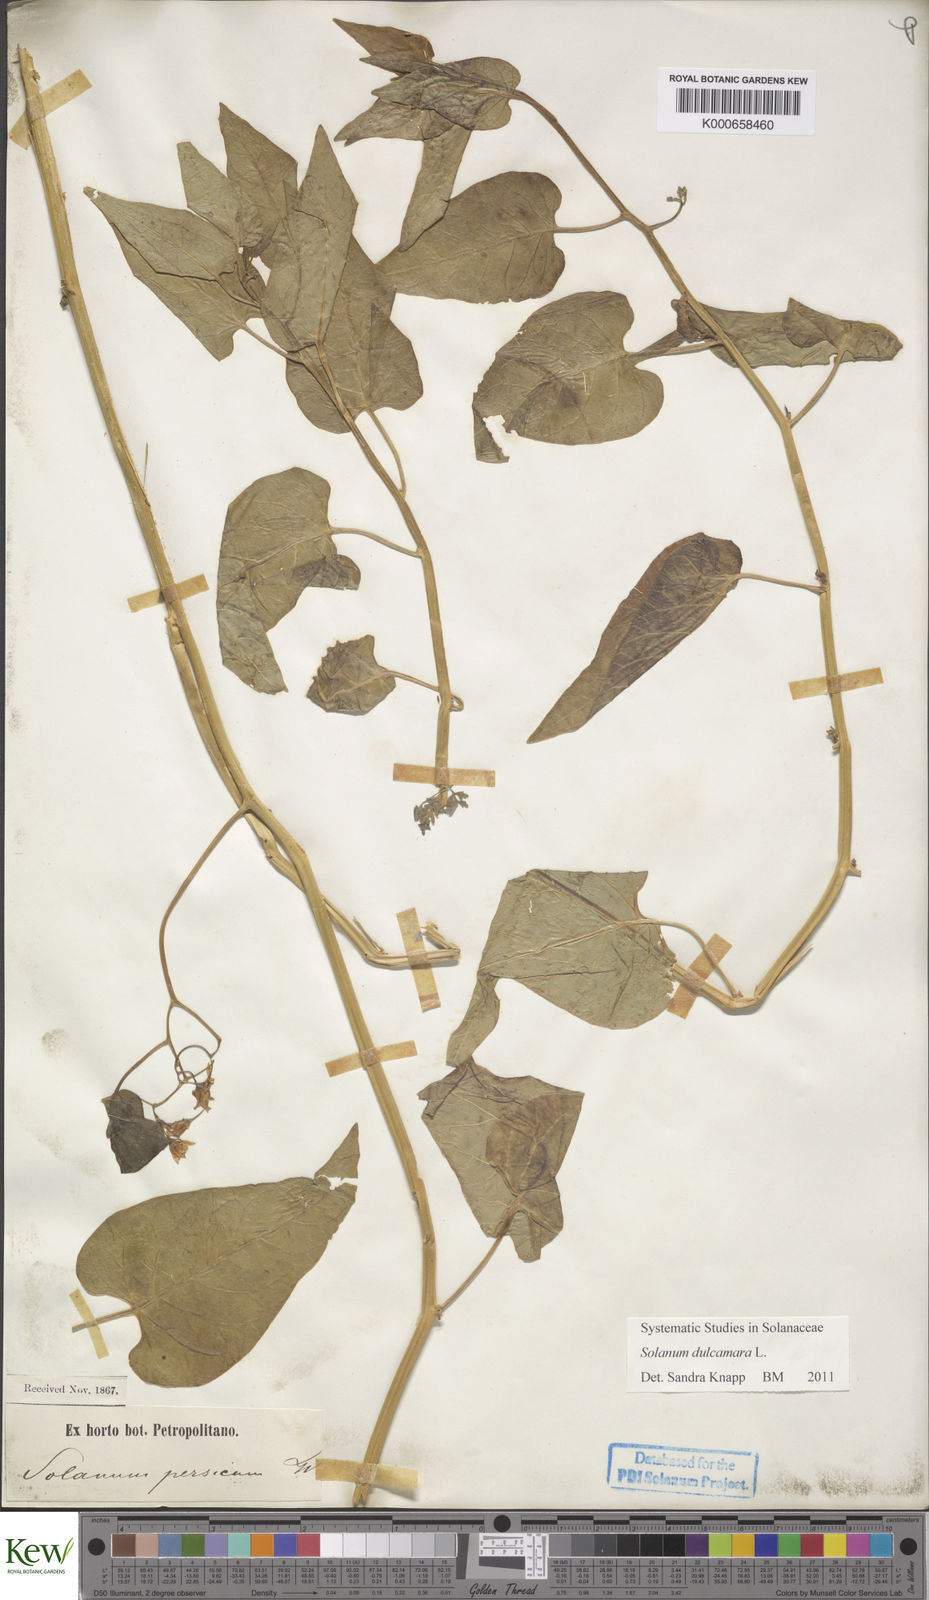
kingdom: Plantae
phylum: Tracheophyta
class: Magnoliopsida
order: Solanales
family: Solanaceae
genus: Solanum
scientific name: Solanum dulcamara
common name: Climbing nightshade
